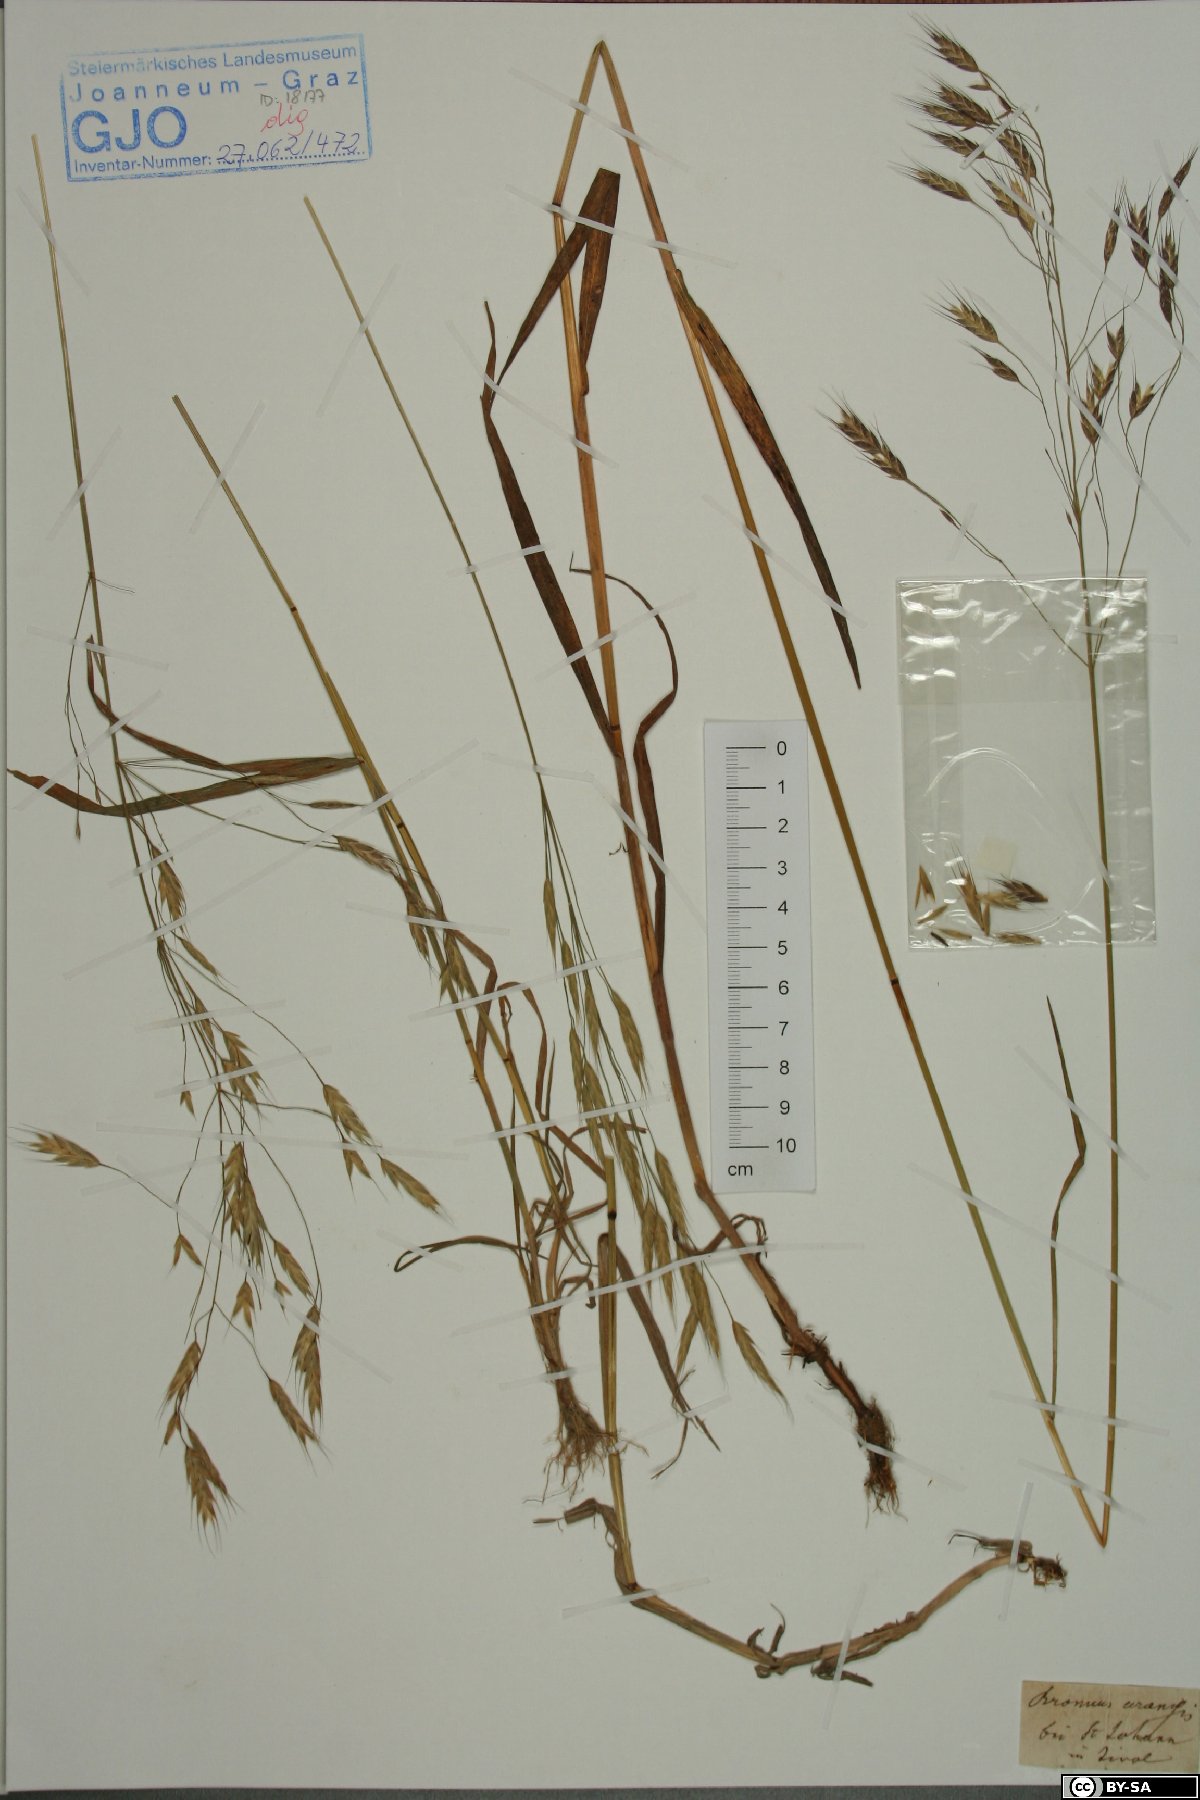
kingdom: Plantae
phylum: Tracheophyta
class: Liliopsida
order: Poales
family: Poaceae
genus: Bromus
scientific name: Bromus arvensis
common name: Field brome
